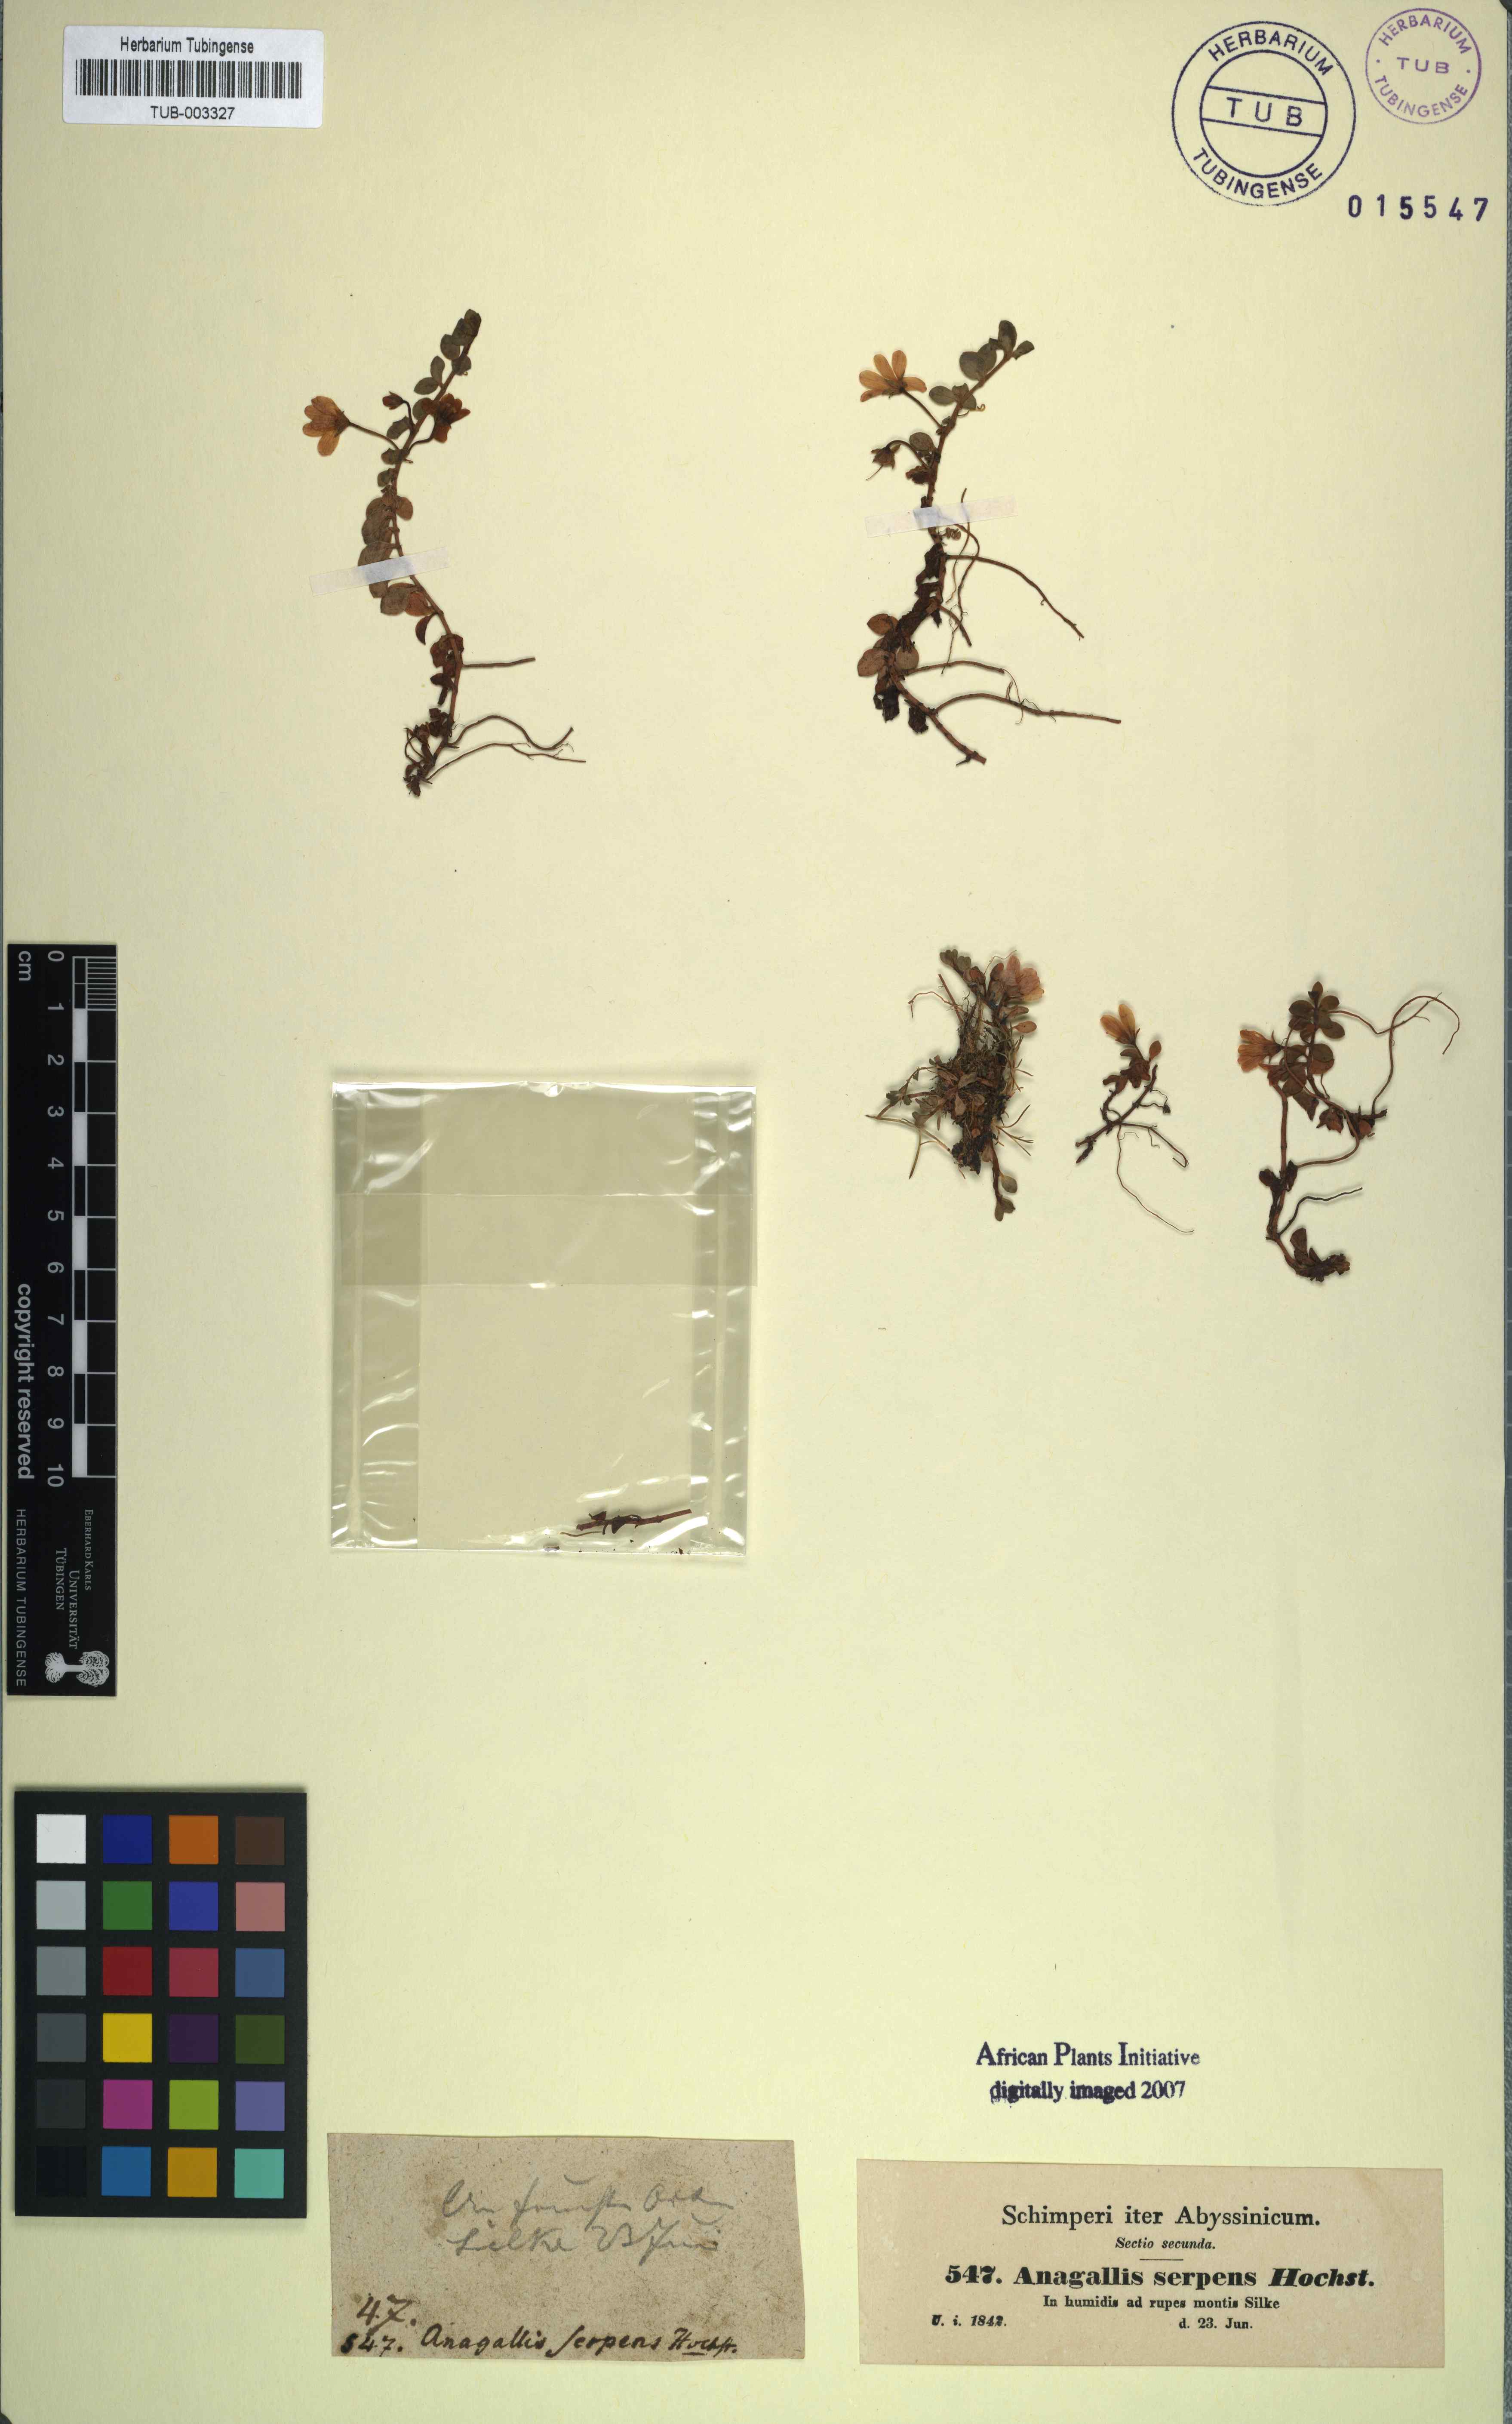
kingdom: Plantae
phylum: Tracheophyta
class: Magnoliopsida
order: Ericales
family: Primulaceae
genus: Lysimachia
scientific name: Lysimachia serpens
